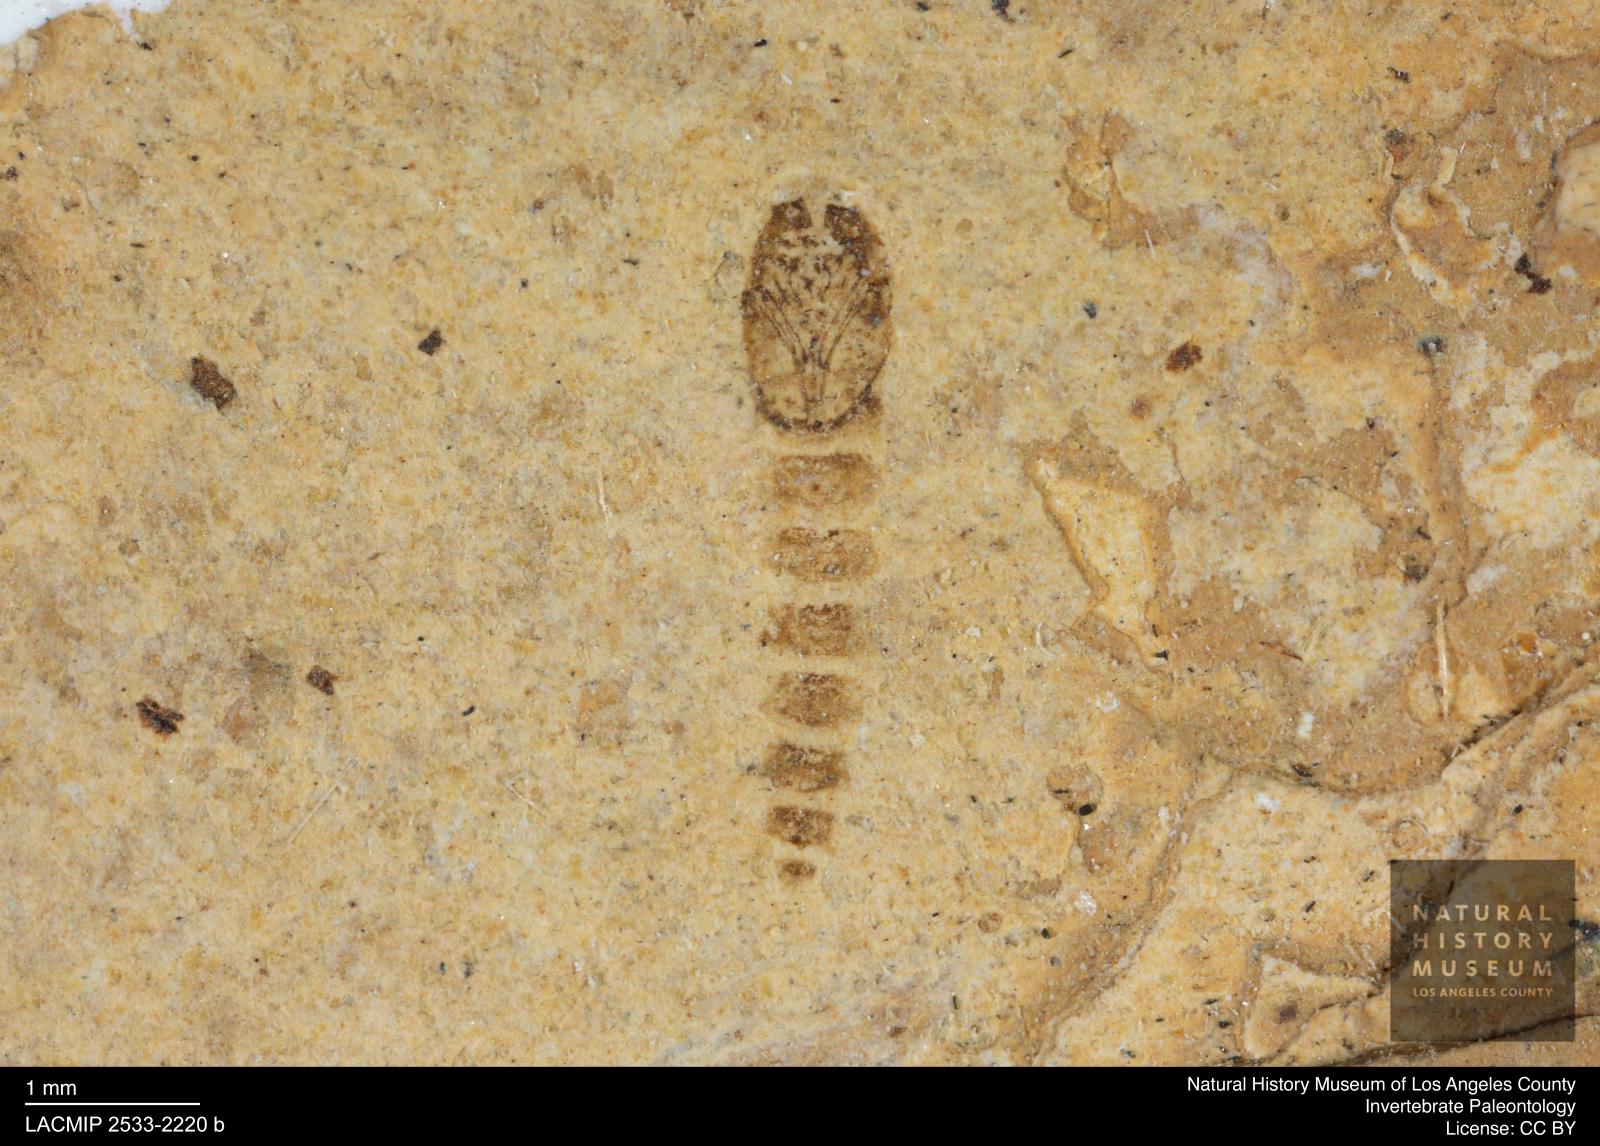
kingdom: Animalia
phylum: Arthropoda
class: Insecta
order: Diptera
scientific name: Diptera
